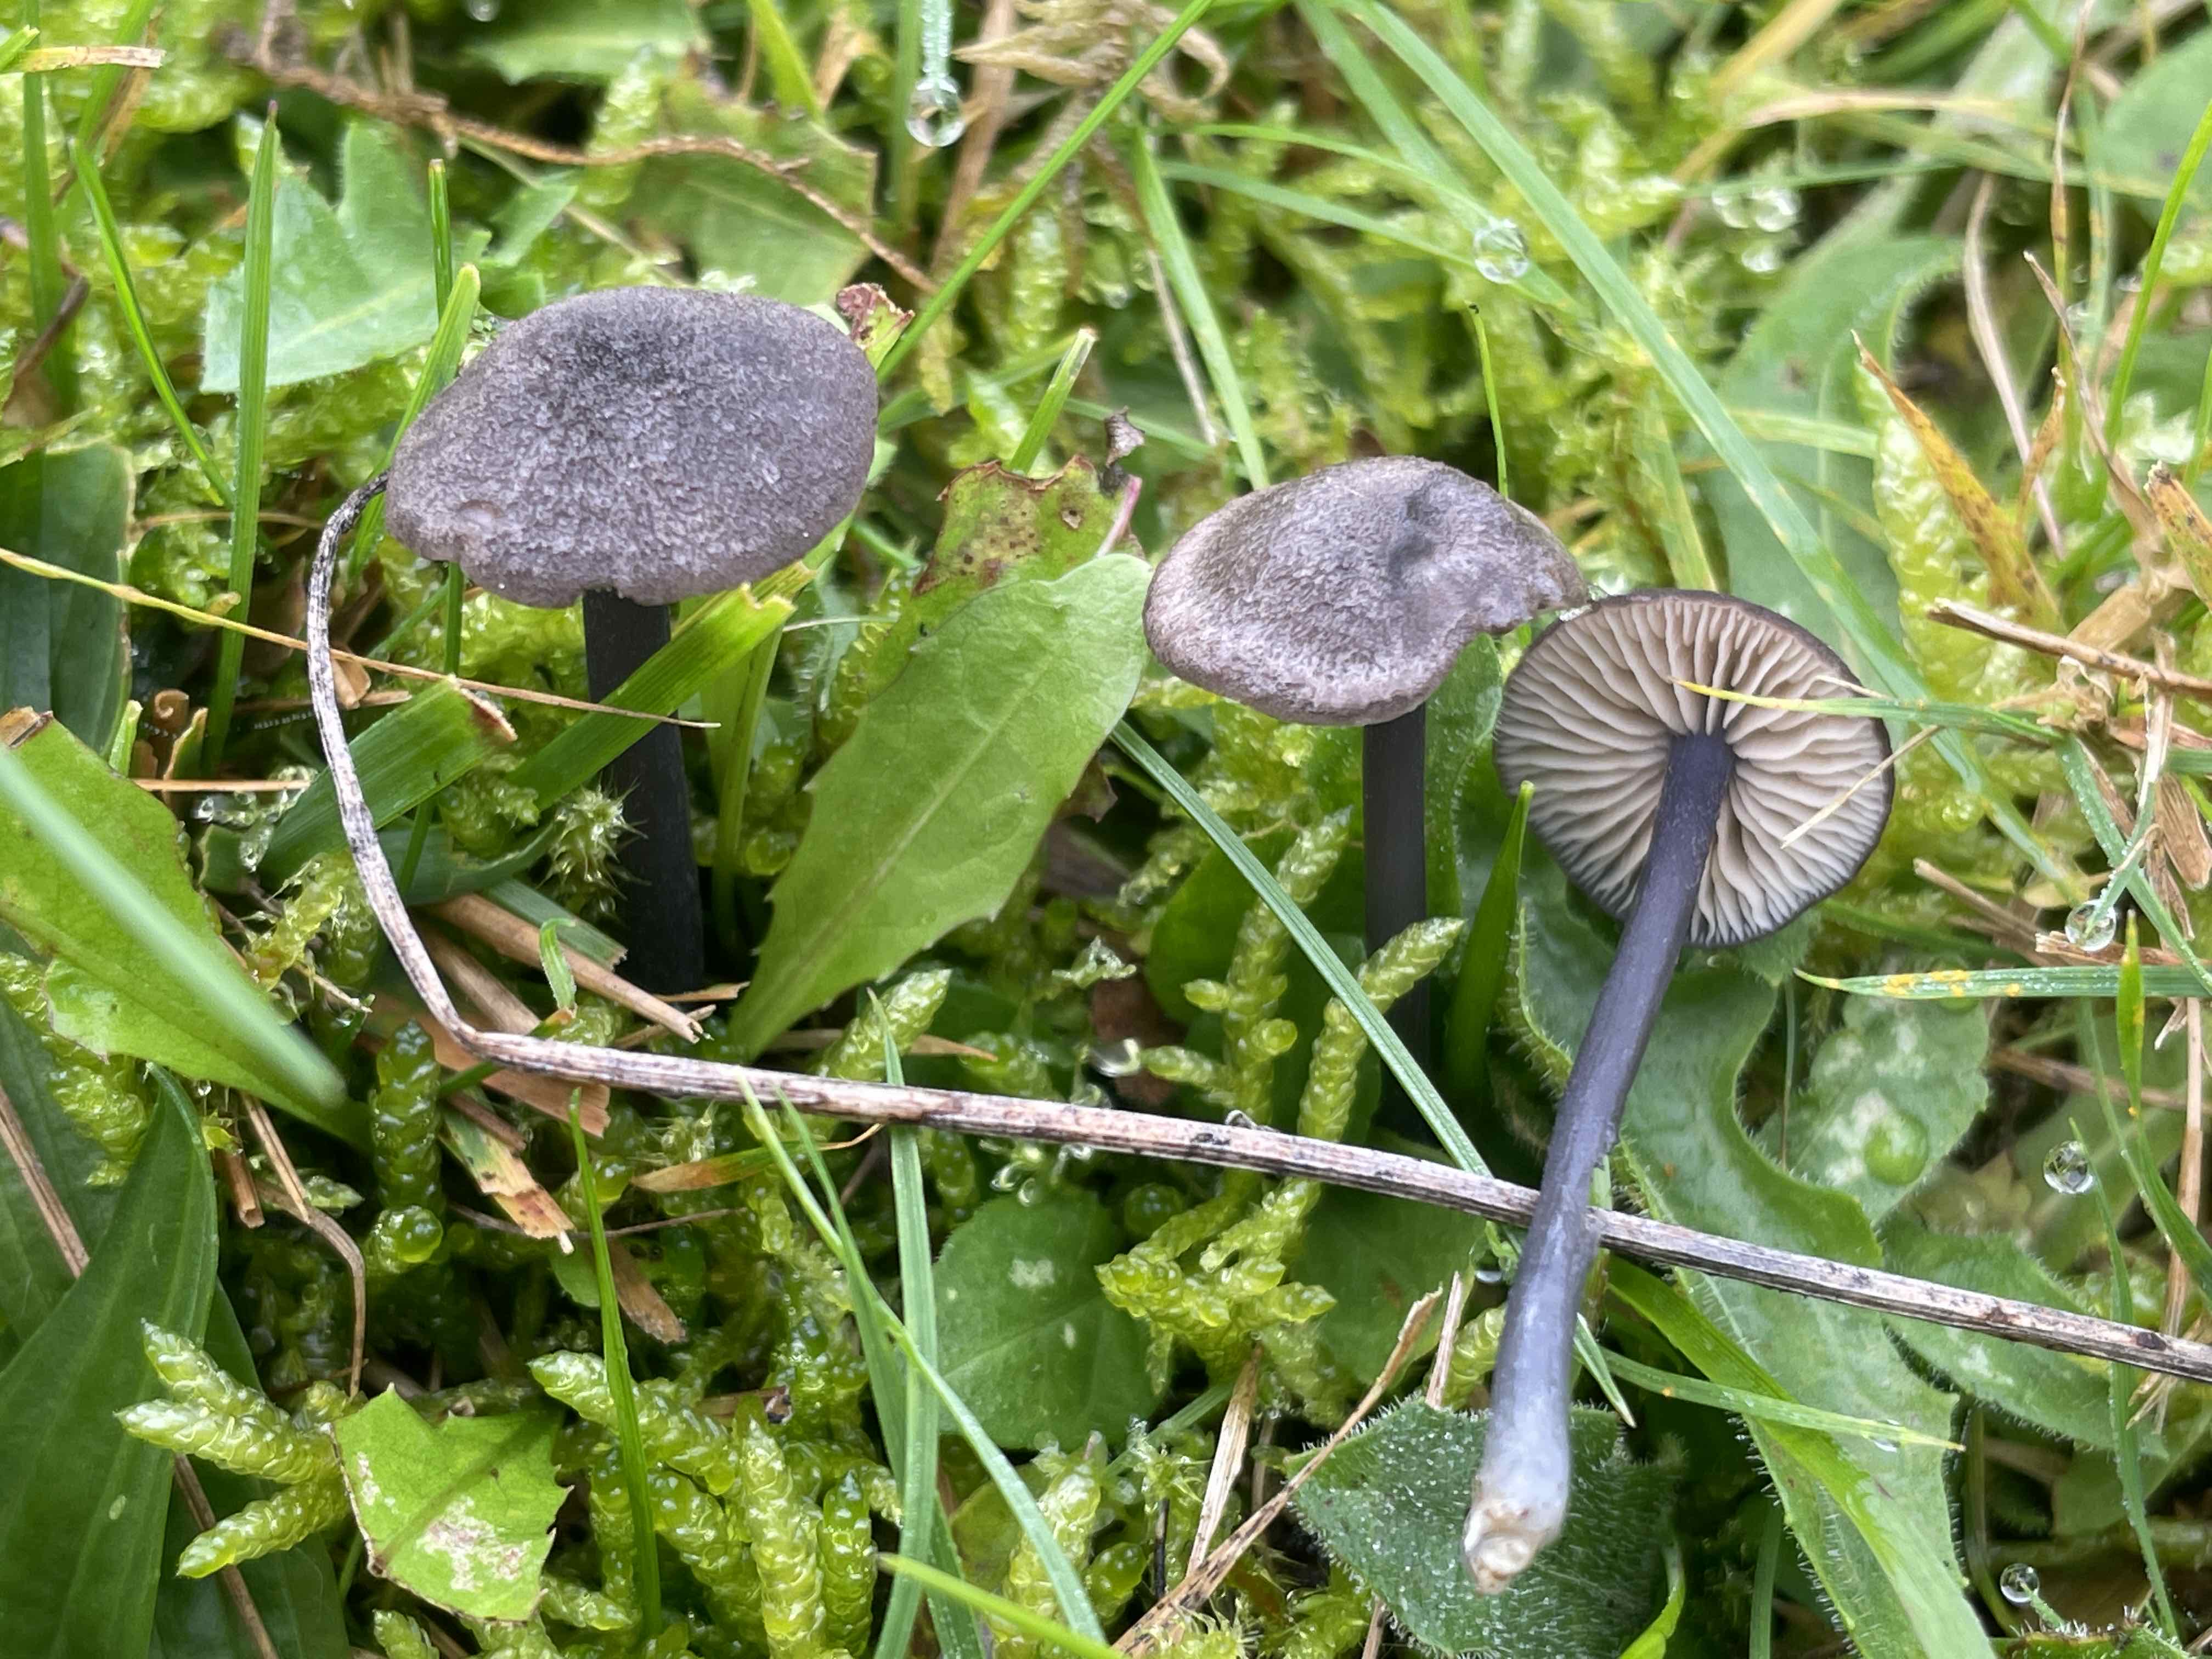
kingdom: Fungi
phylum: Basidiomycota
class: Agaricomycetes
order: Agaricales
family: Entolomataceae
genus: Entoloma
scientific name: Entoloma atrocoeruleum
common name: sortblå rødblad
